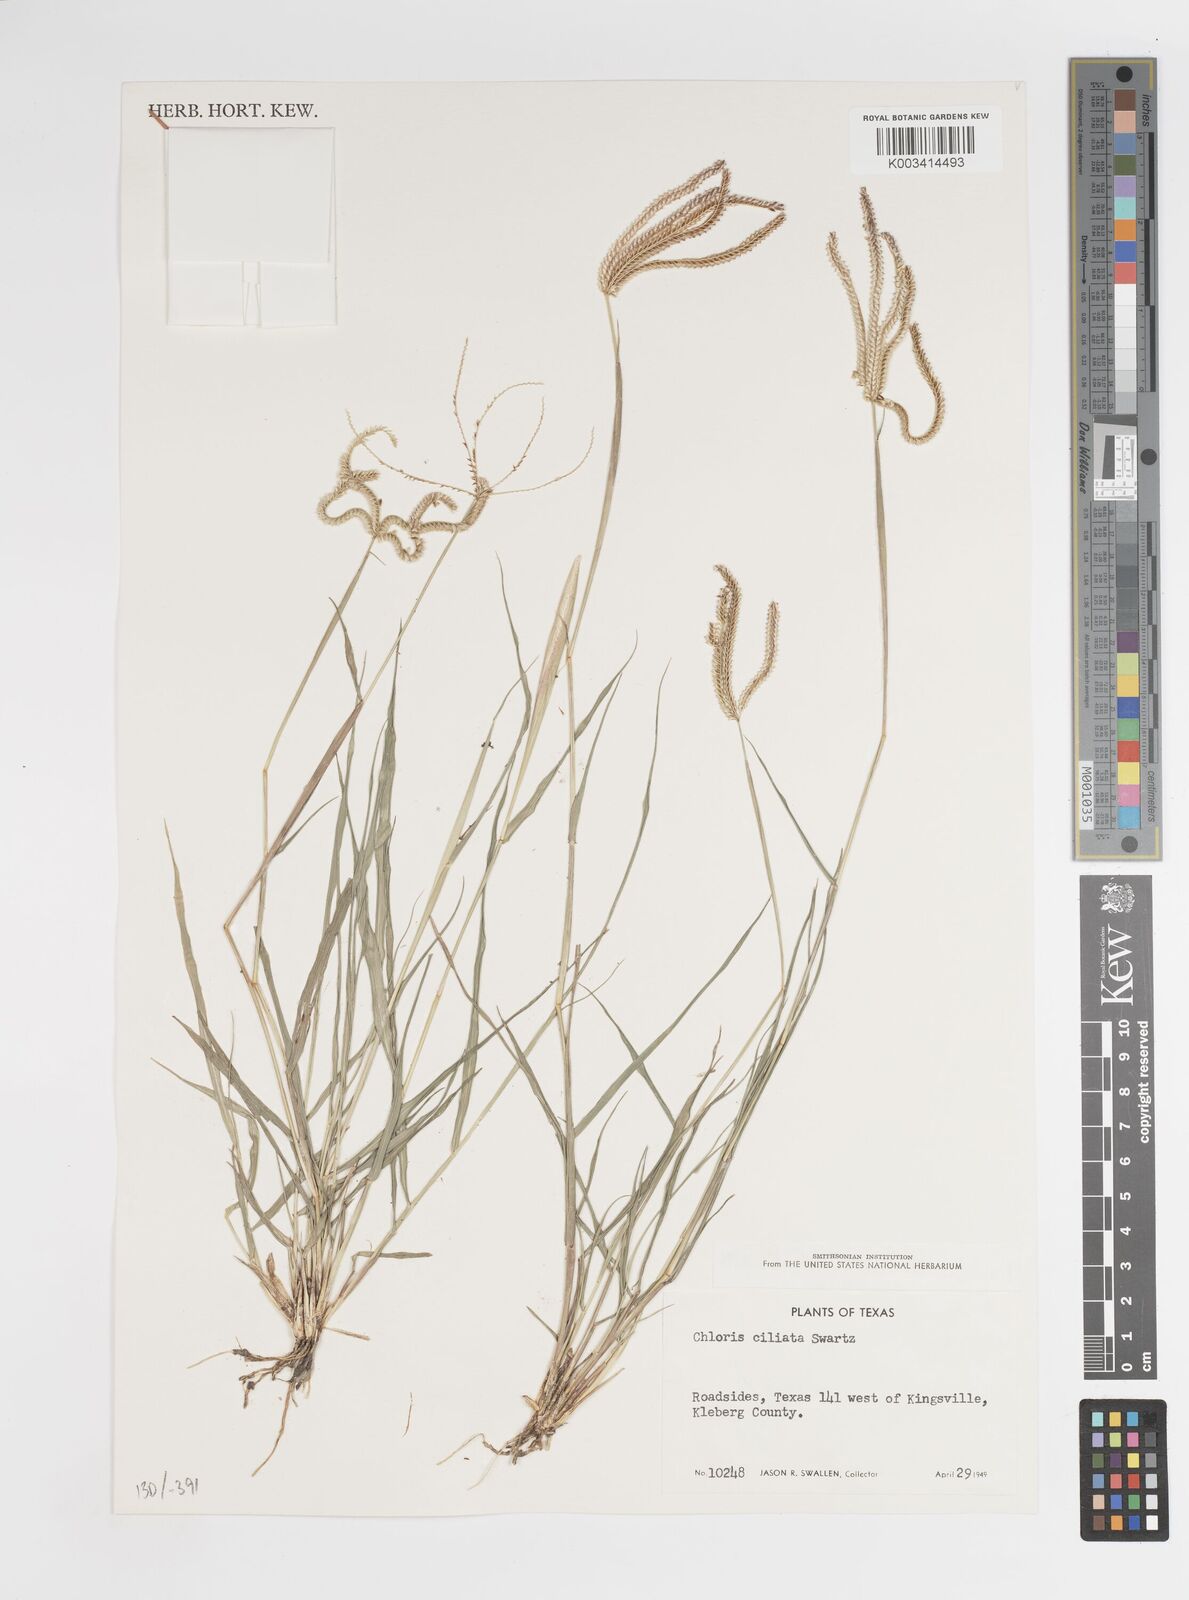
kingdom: Plantae
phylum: Tracheophyta
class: Liliopsida
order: Poales
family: Poaceae
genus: Stapfochloa
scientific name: Stapfochloa ciliata
